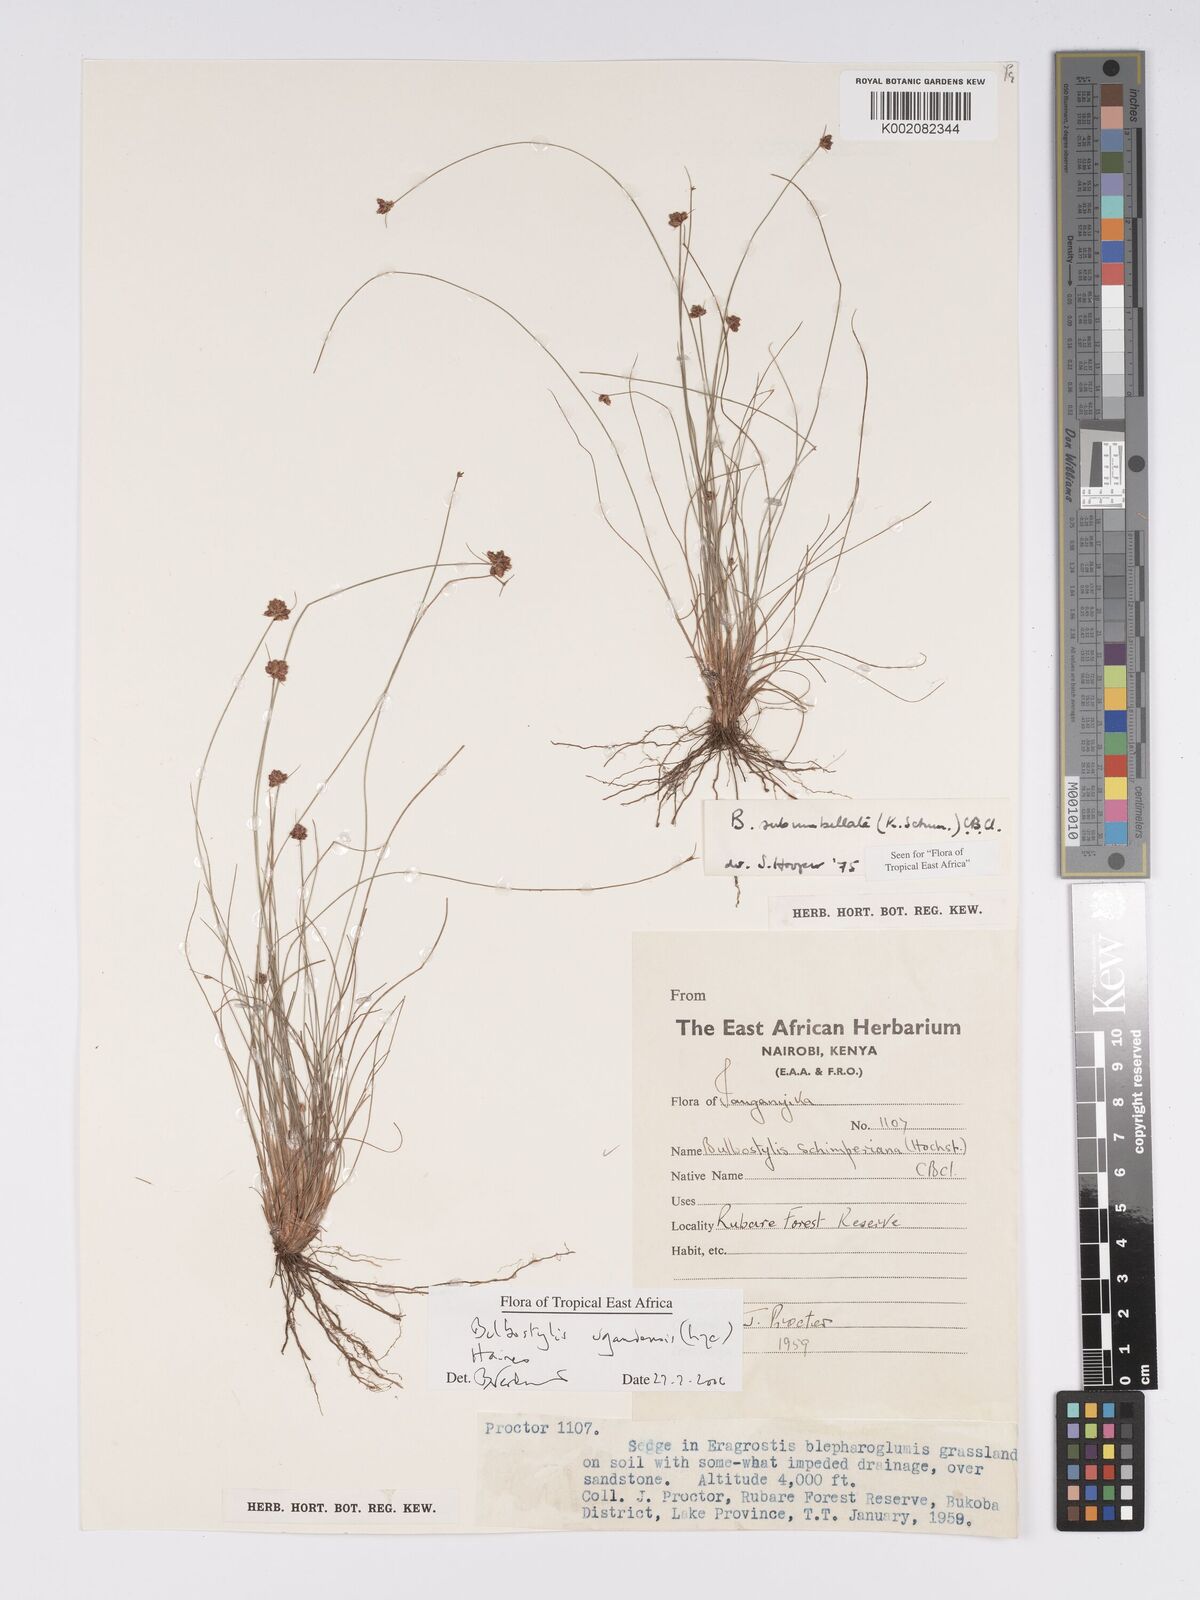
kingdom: Plantae
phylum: Tracheophyta
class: Liliopsida
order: Poales
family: Cyperaceae
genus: Bulbostylis
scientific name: Bulbostylis ugandensis
